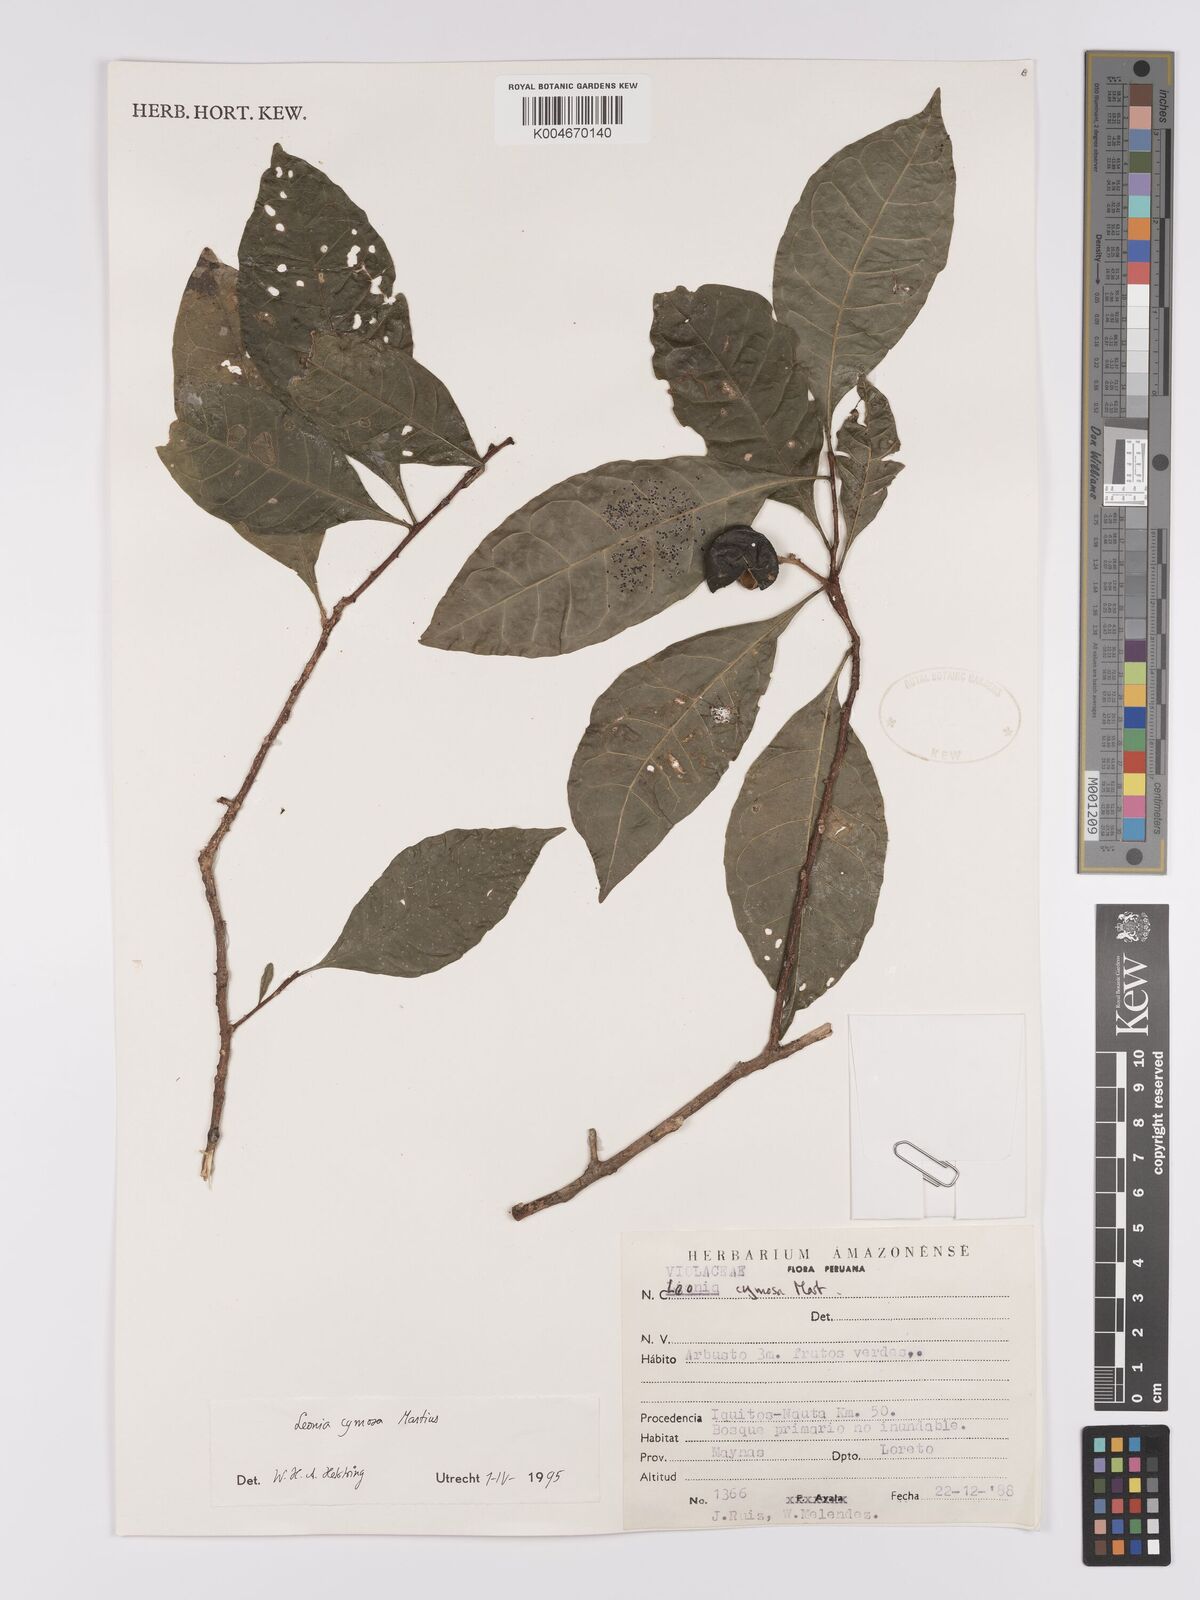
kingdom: Plantae
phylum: Tracheophyta
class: Magnoliopsida
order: Malpighiales
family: Violaceae
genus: Leonia
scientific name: Leonia cymosa
